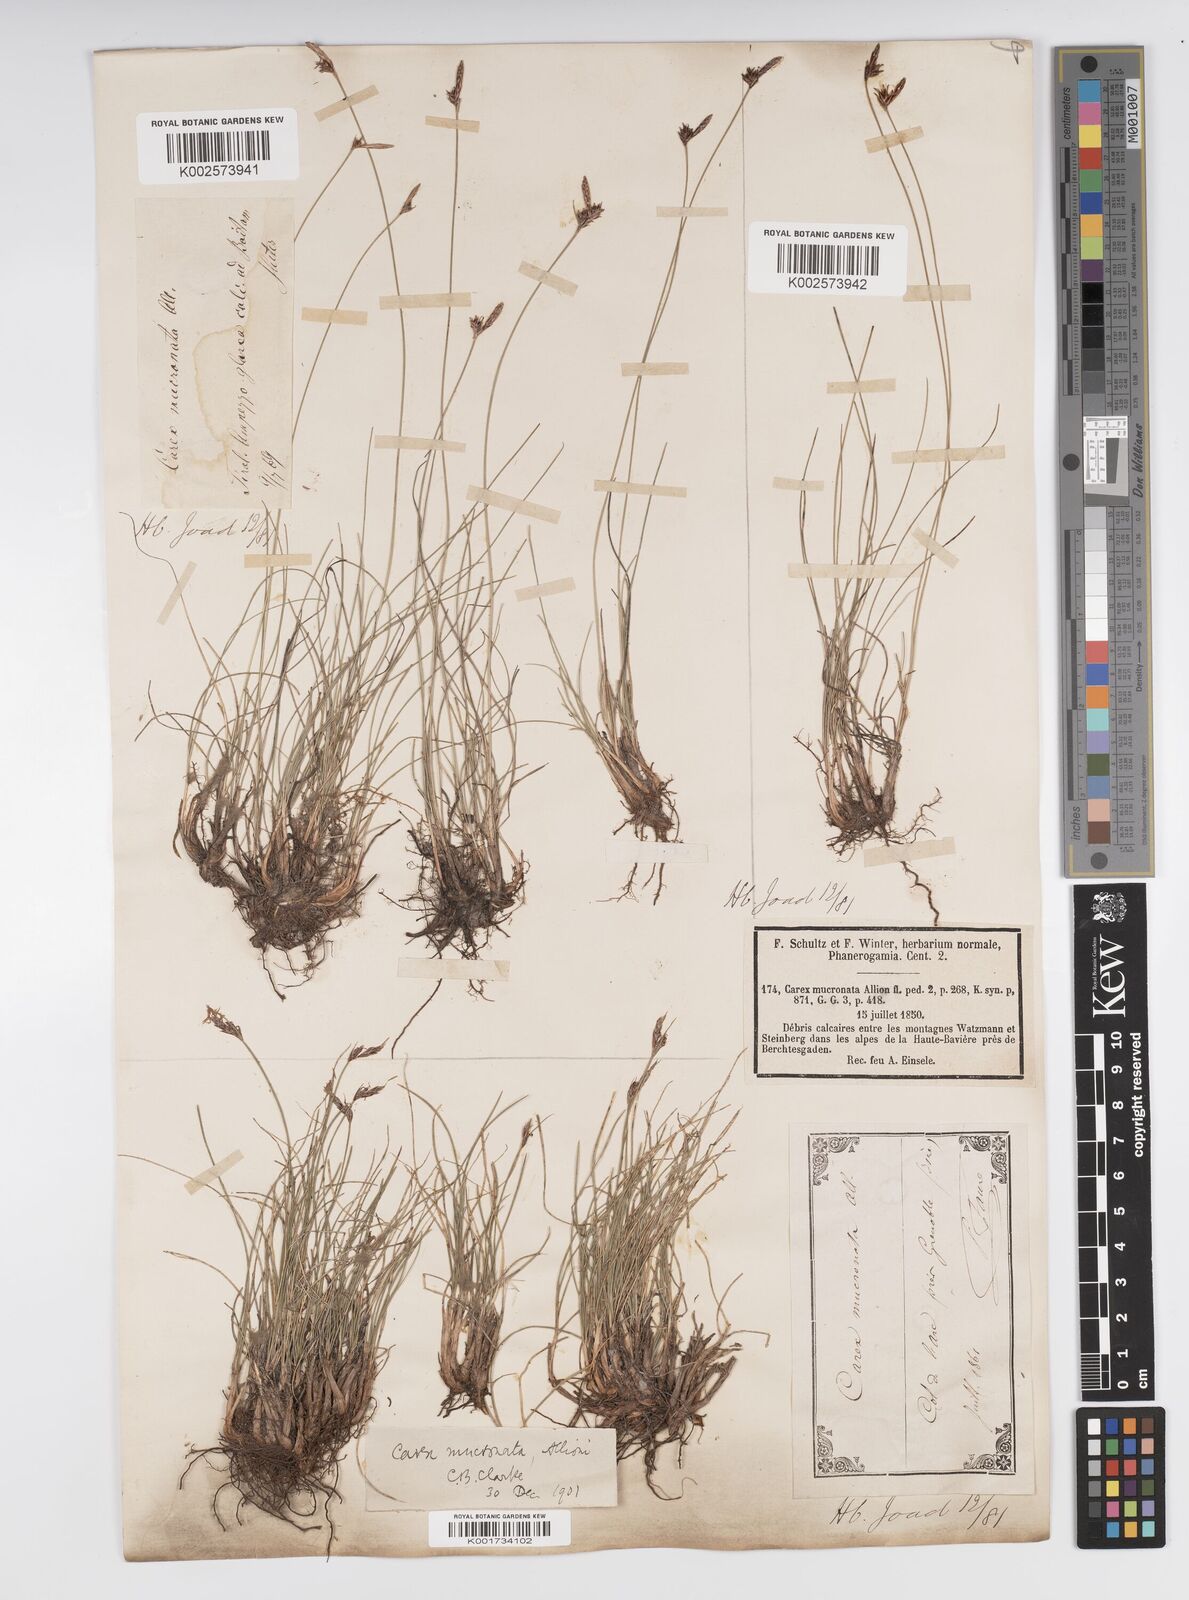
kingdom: Plantae
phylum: Tracheophyta
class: Liliopsida
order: Poales
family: Cyperaceae
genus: Carex
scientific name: Carex mucronata
